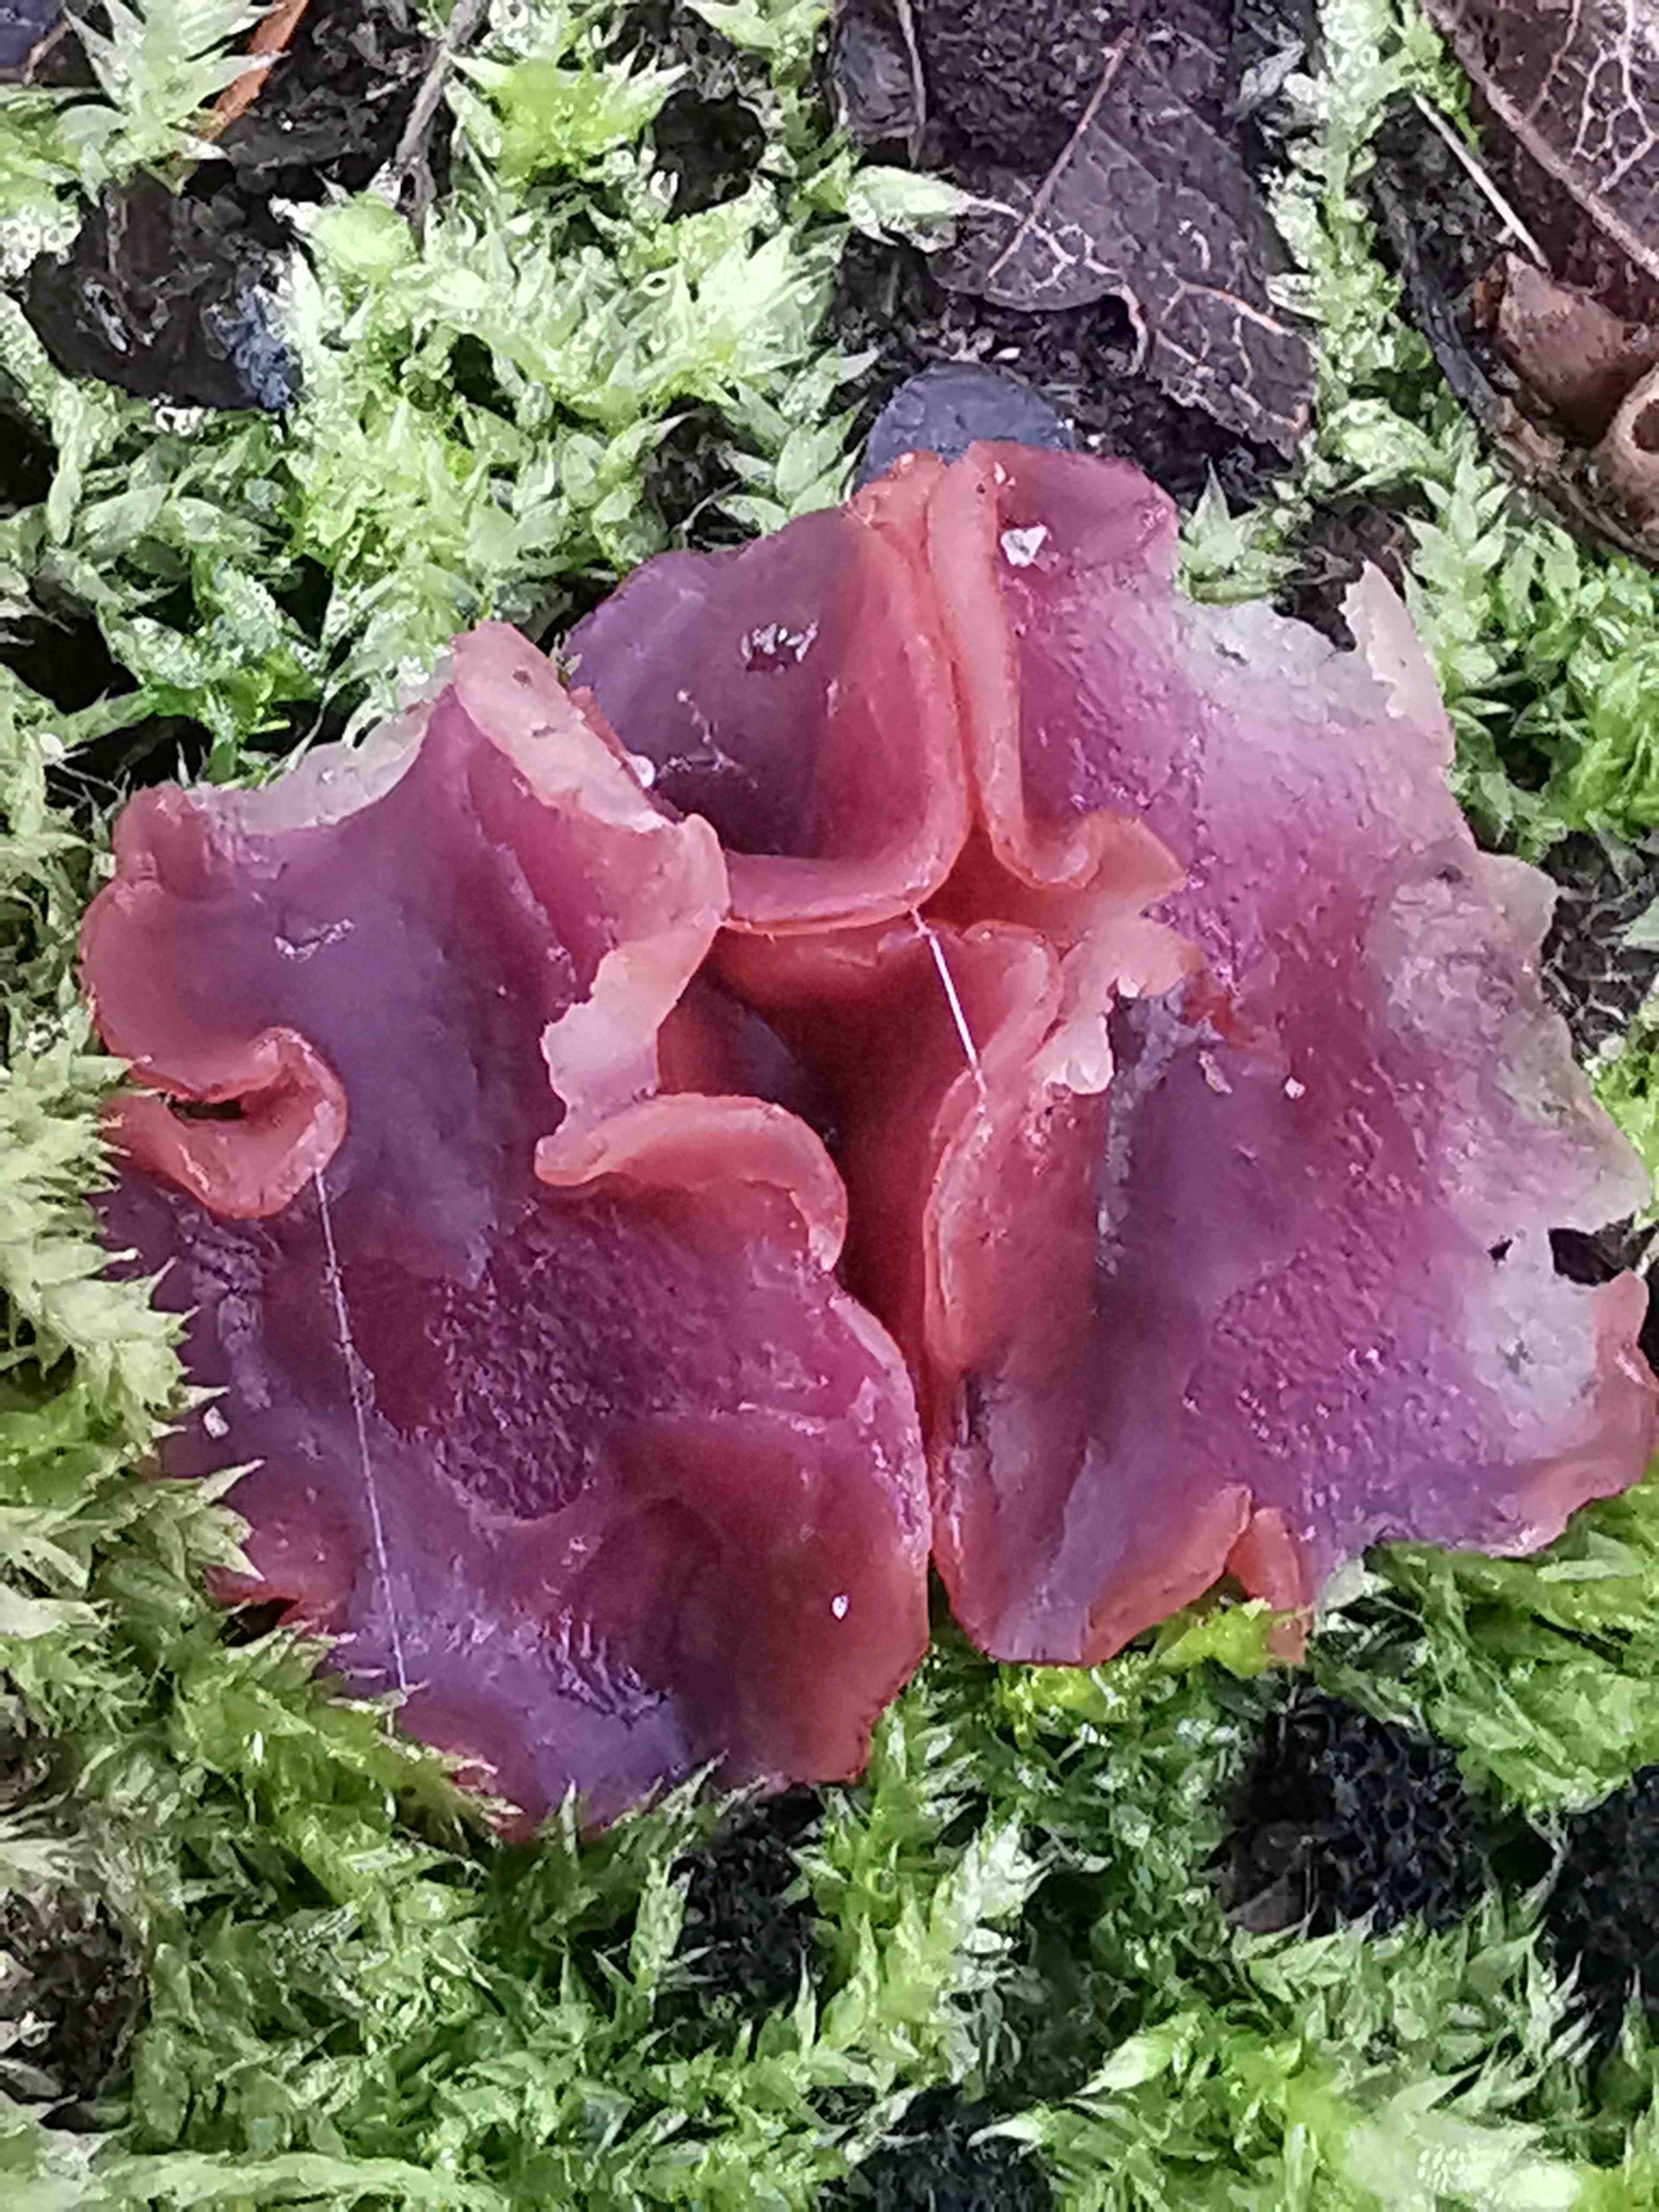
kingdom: Fungi
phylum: Ascomycota
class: Leotiomycetes
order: Helotiales
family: Gelatinodiscaceae
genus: Ascocoryne
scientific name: Ascocoryne cylichnium
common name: stor sejskive
